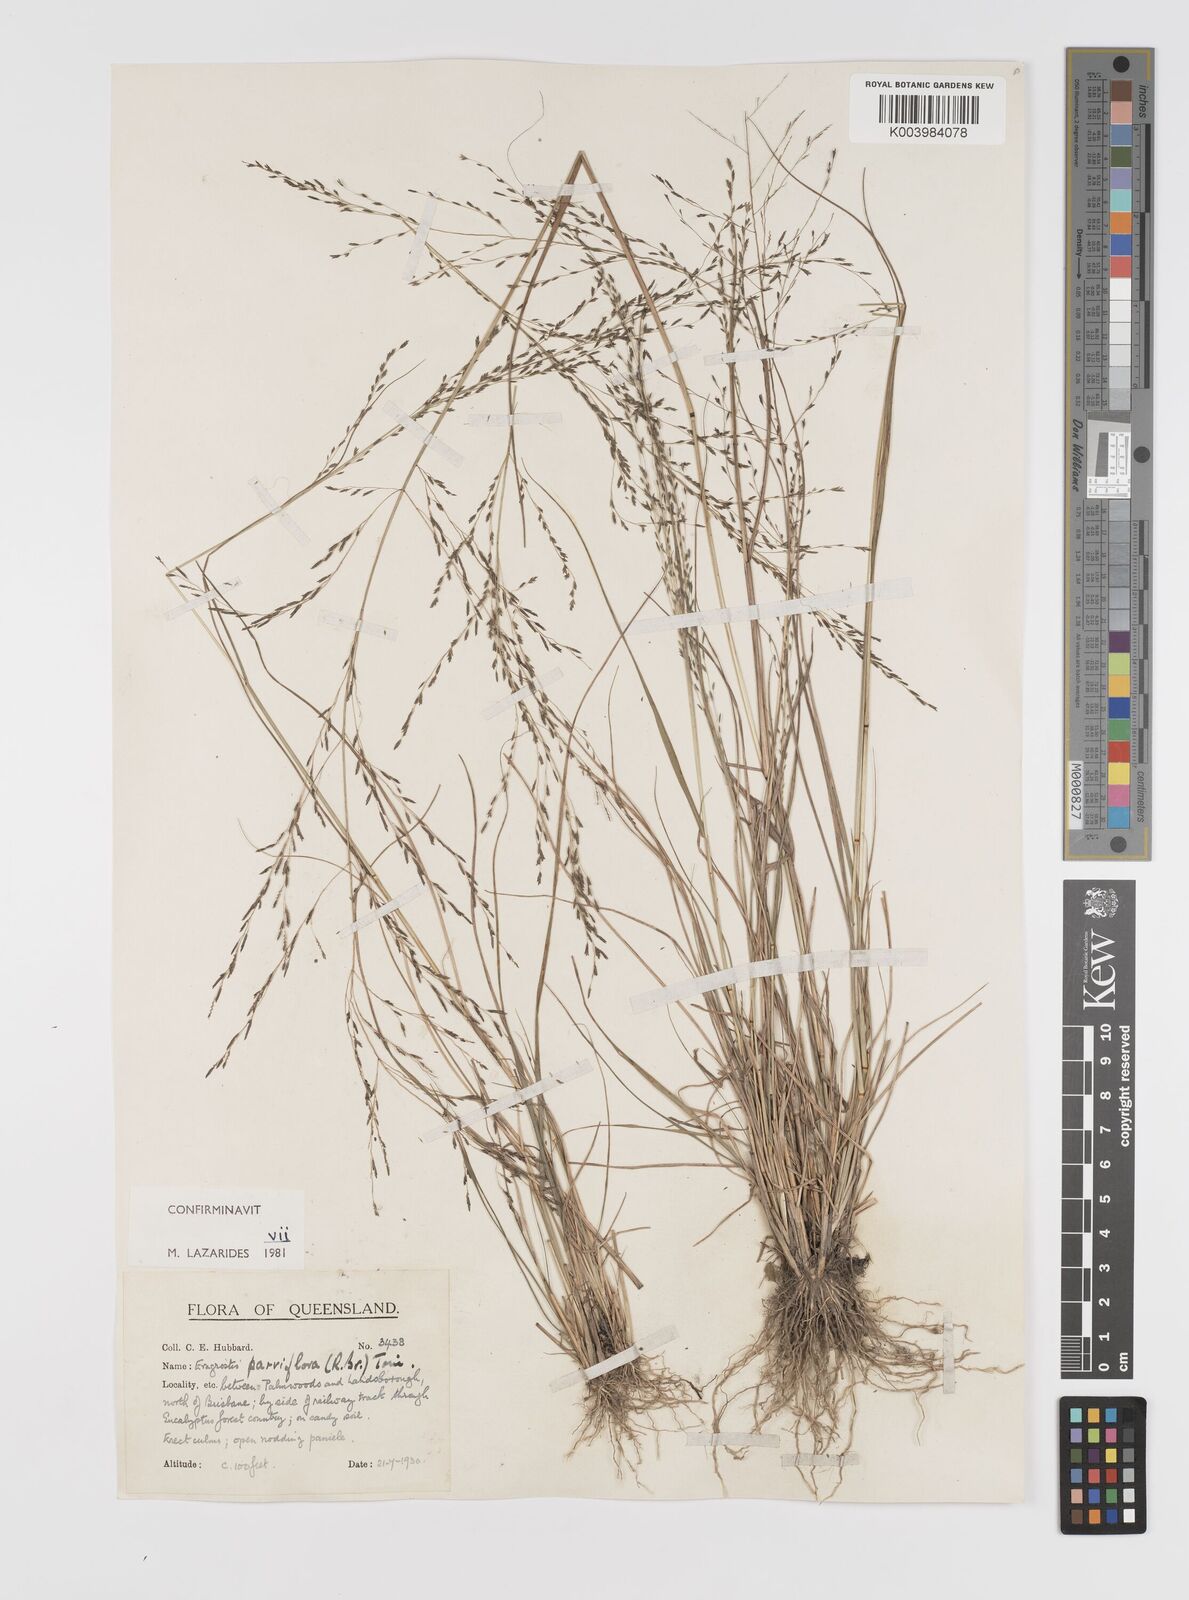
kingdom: Plantae
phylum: Tracheophyta
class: Liliopsida
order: Poales
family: Poaceae
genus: Eragrostis
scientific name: Eragrostis parviflora
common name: Weeping love-grass
